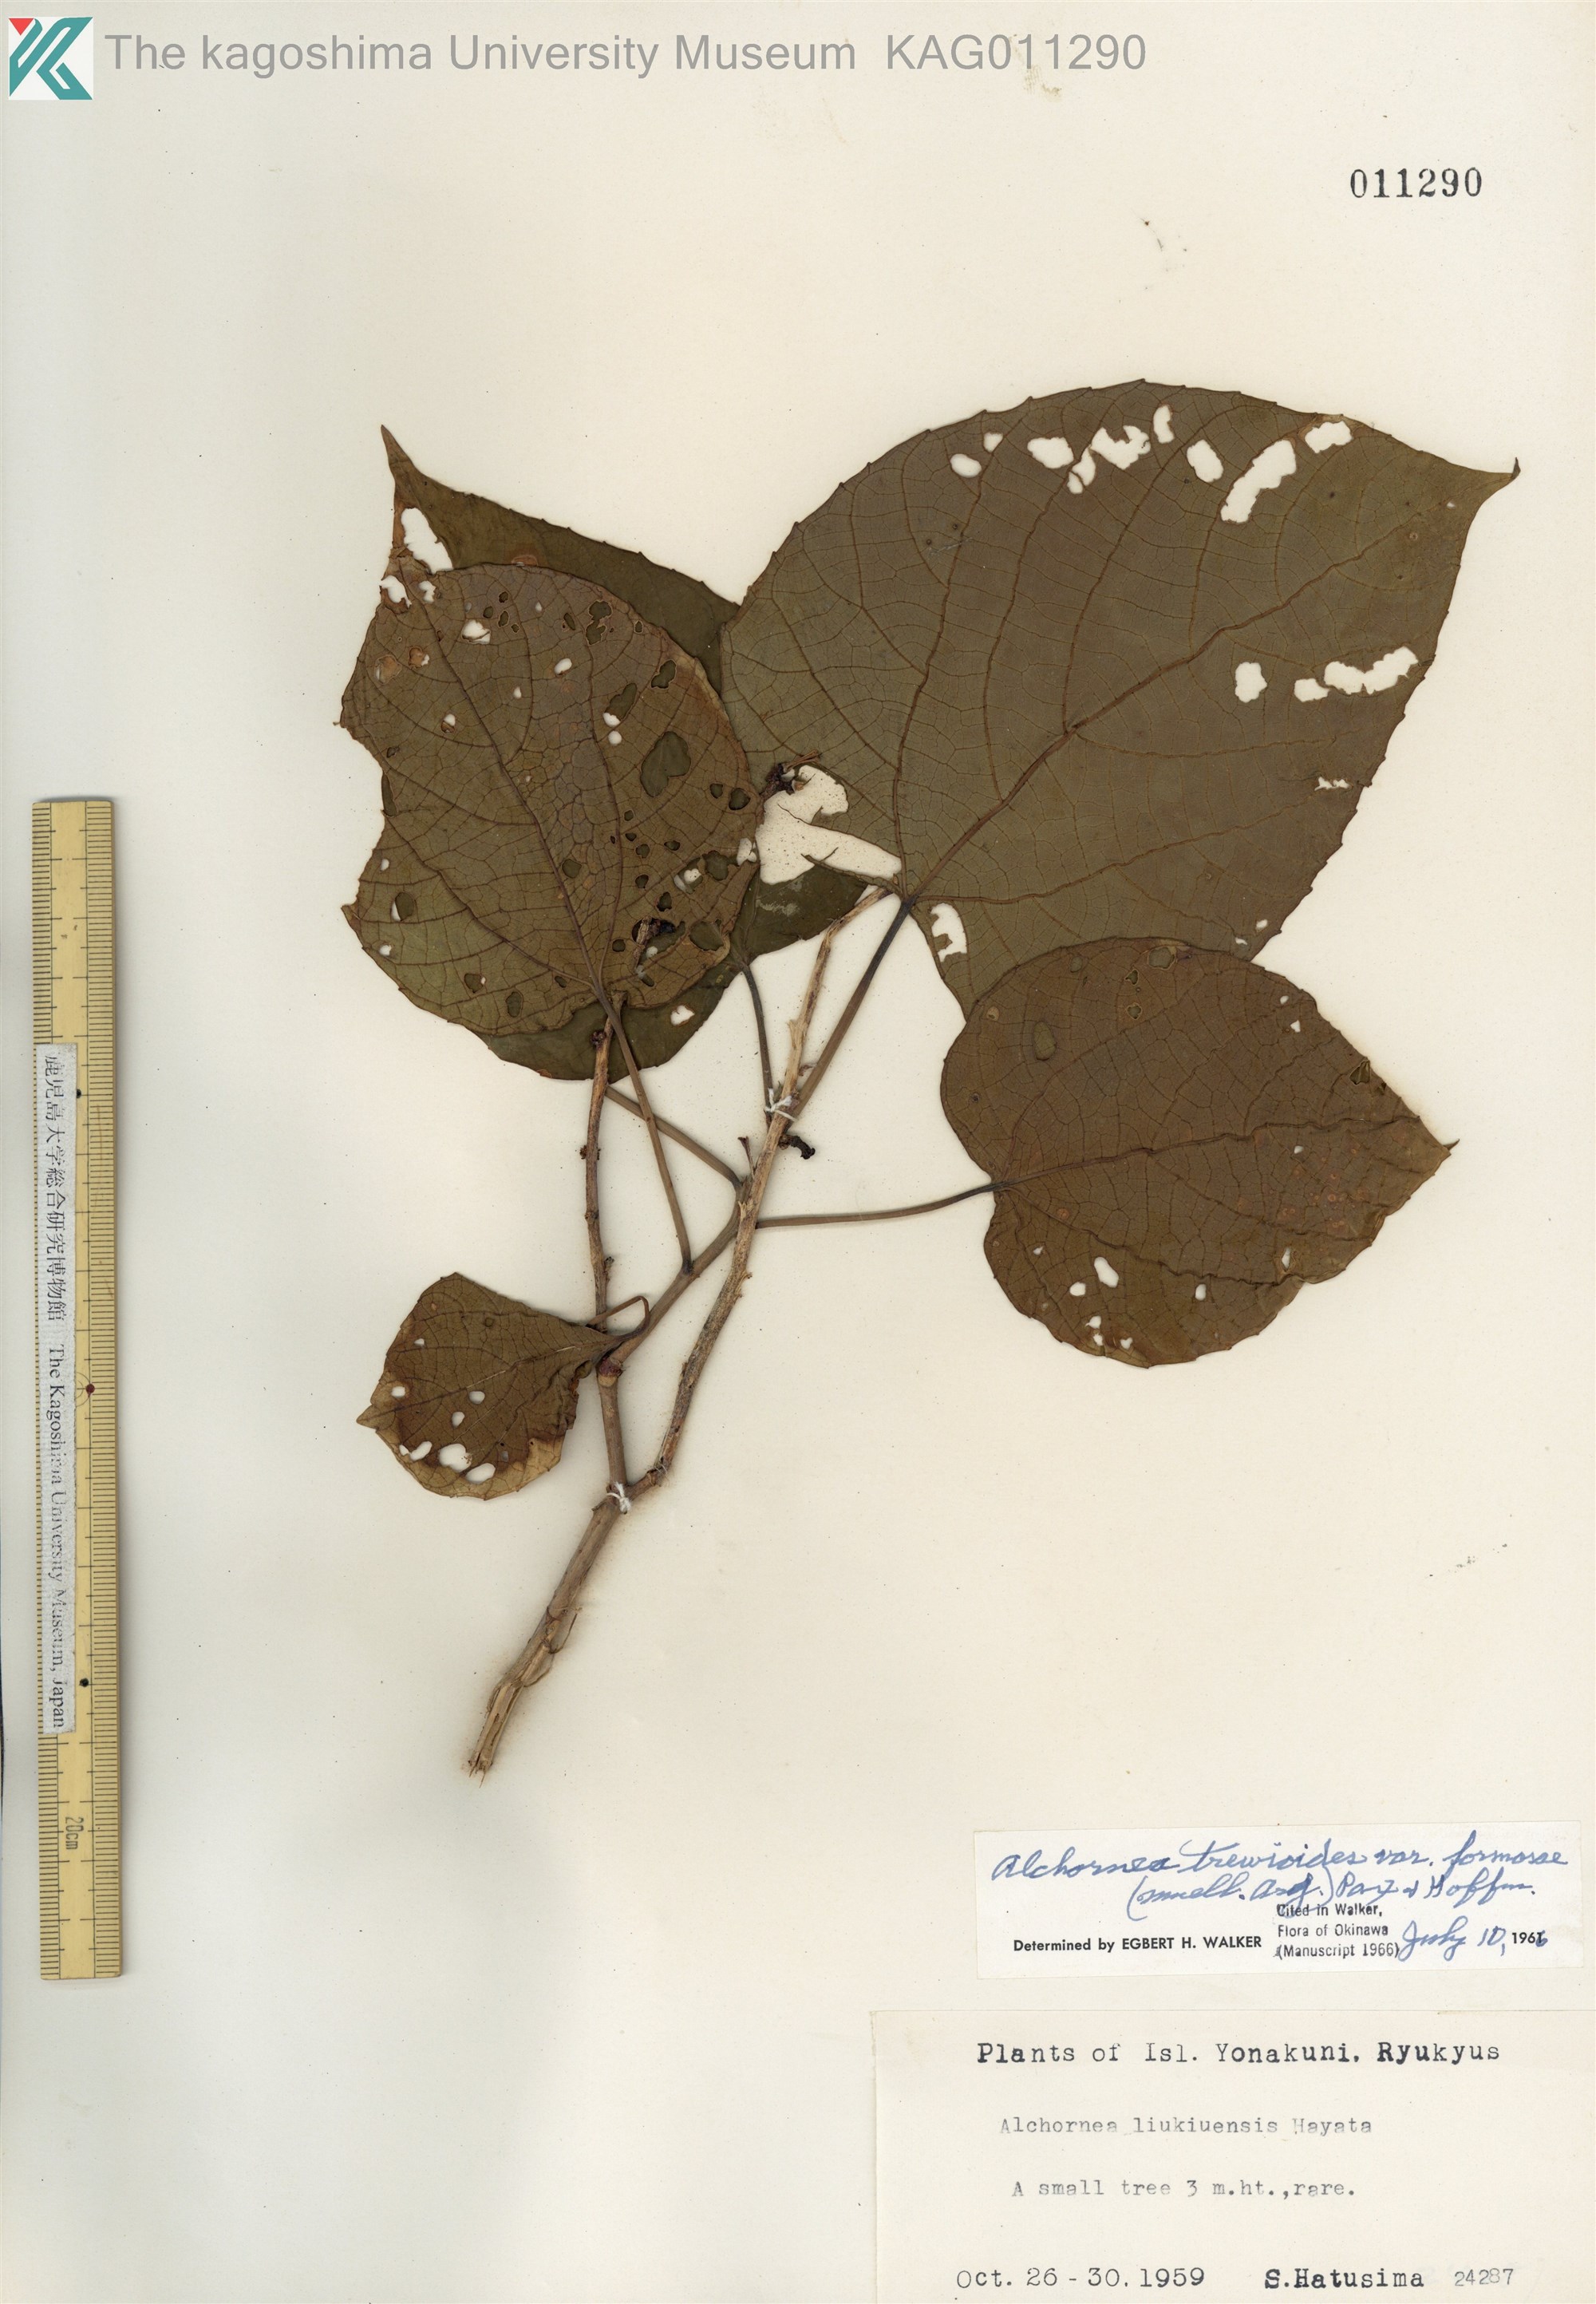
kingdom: Plantae
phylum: Tracheophyta
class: Magnoliopsida
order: Malpighiales
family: Euphorbiaceae
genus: Alchornea
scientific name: Alchornea liukiuensis
